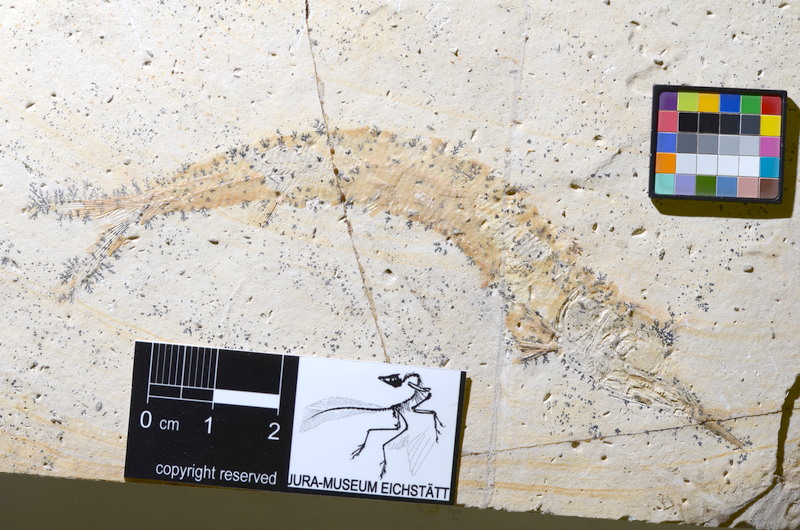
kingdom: Animalia
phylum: Chordata
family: Aspidorhynchidae
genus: Aspidorhynchus
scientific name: Aspidorhynchus acutirostris
